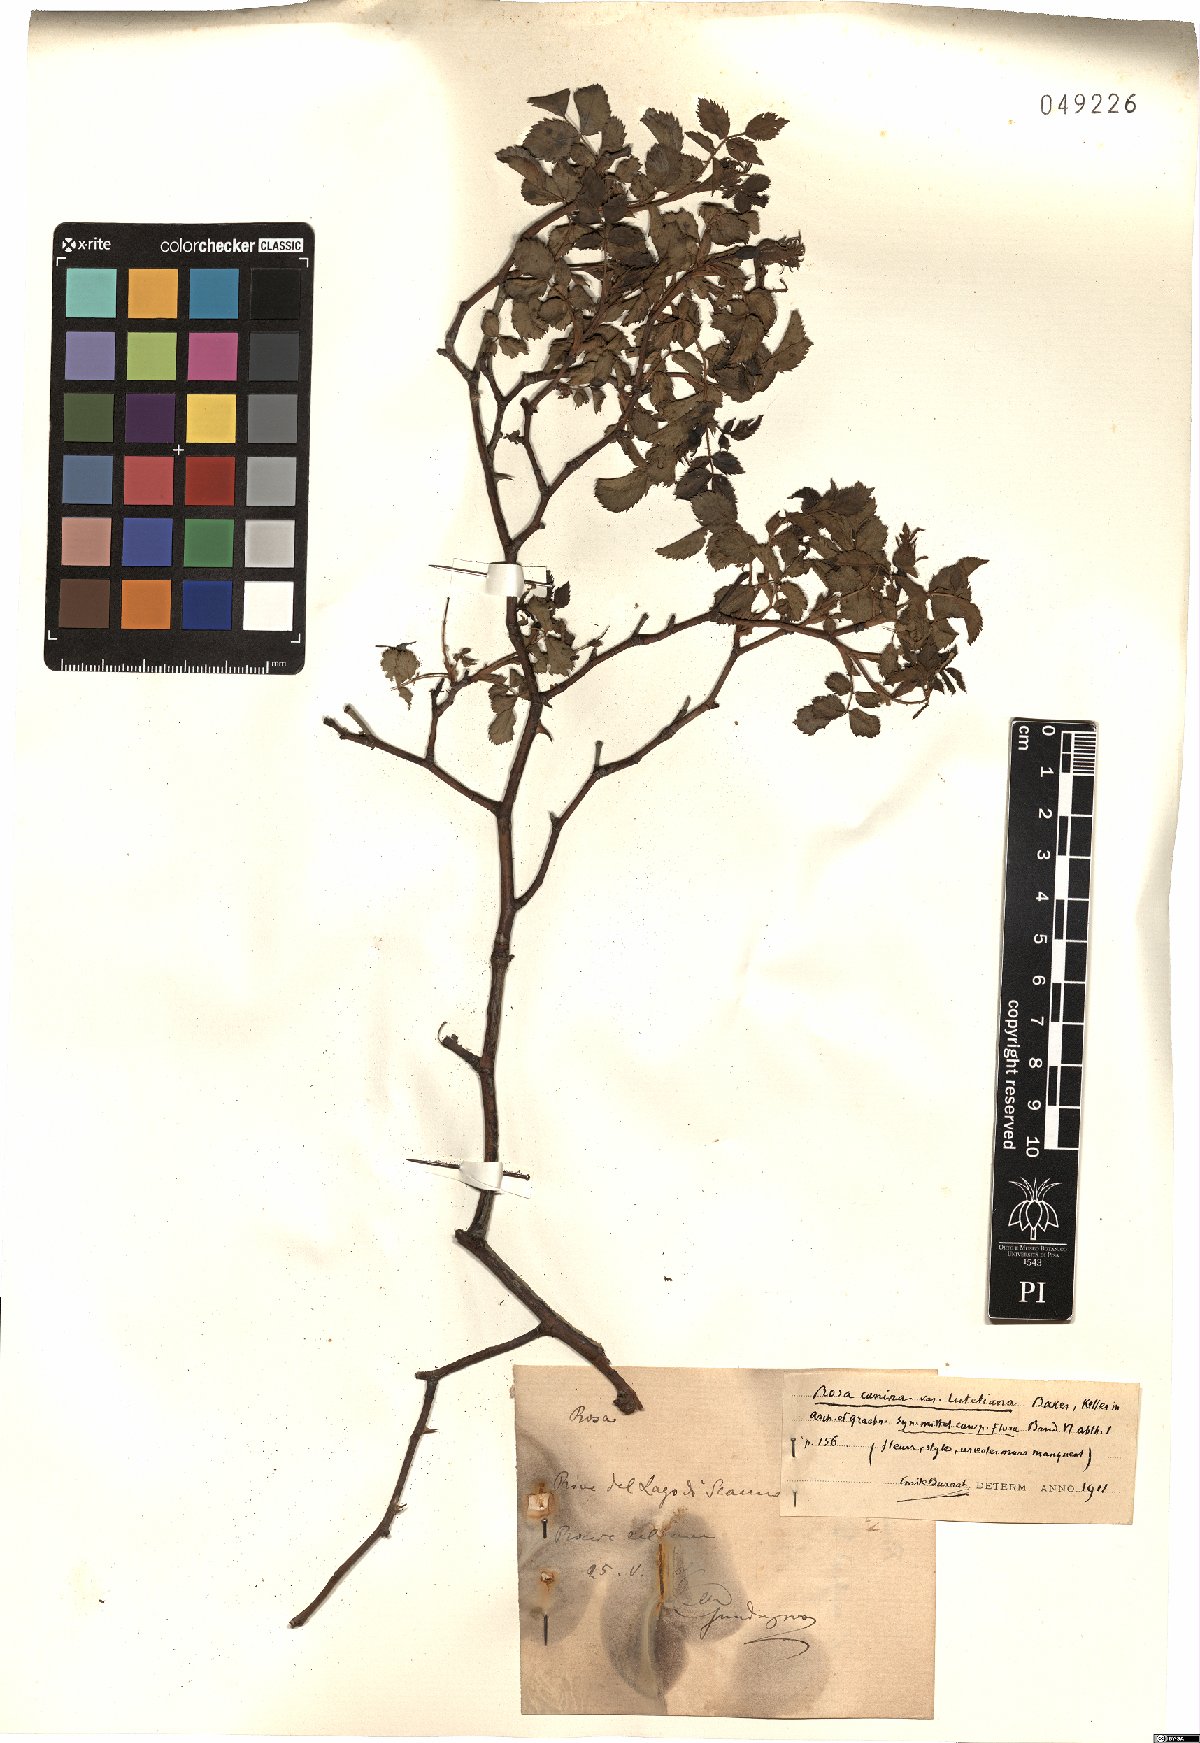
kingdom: Plantae
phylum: Tracheophyta
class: Magnoliopsida
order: Rosales
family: Rosaceae
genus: Rosa
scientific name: Rosa canina
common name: Dog rose
